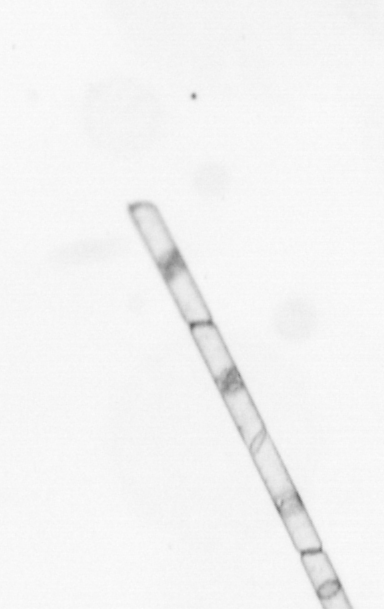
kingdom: Chromista
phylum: Ochrophyta
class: Bacillariophyceae
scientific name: Bacillariophyceae
